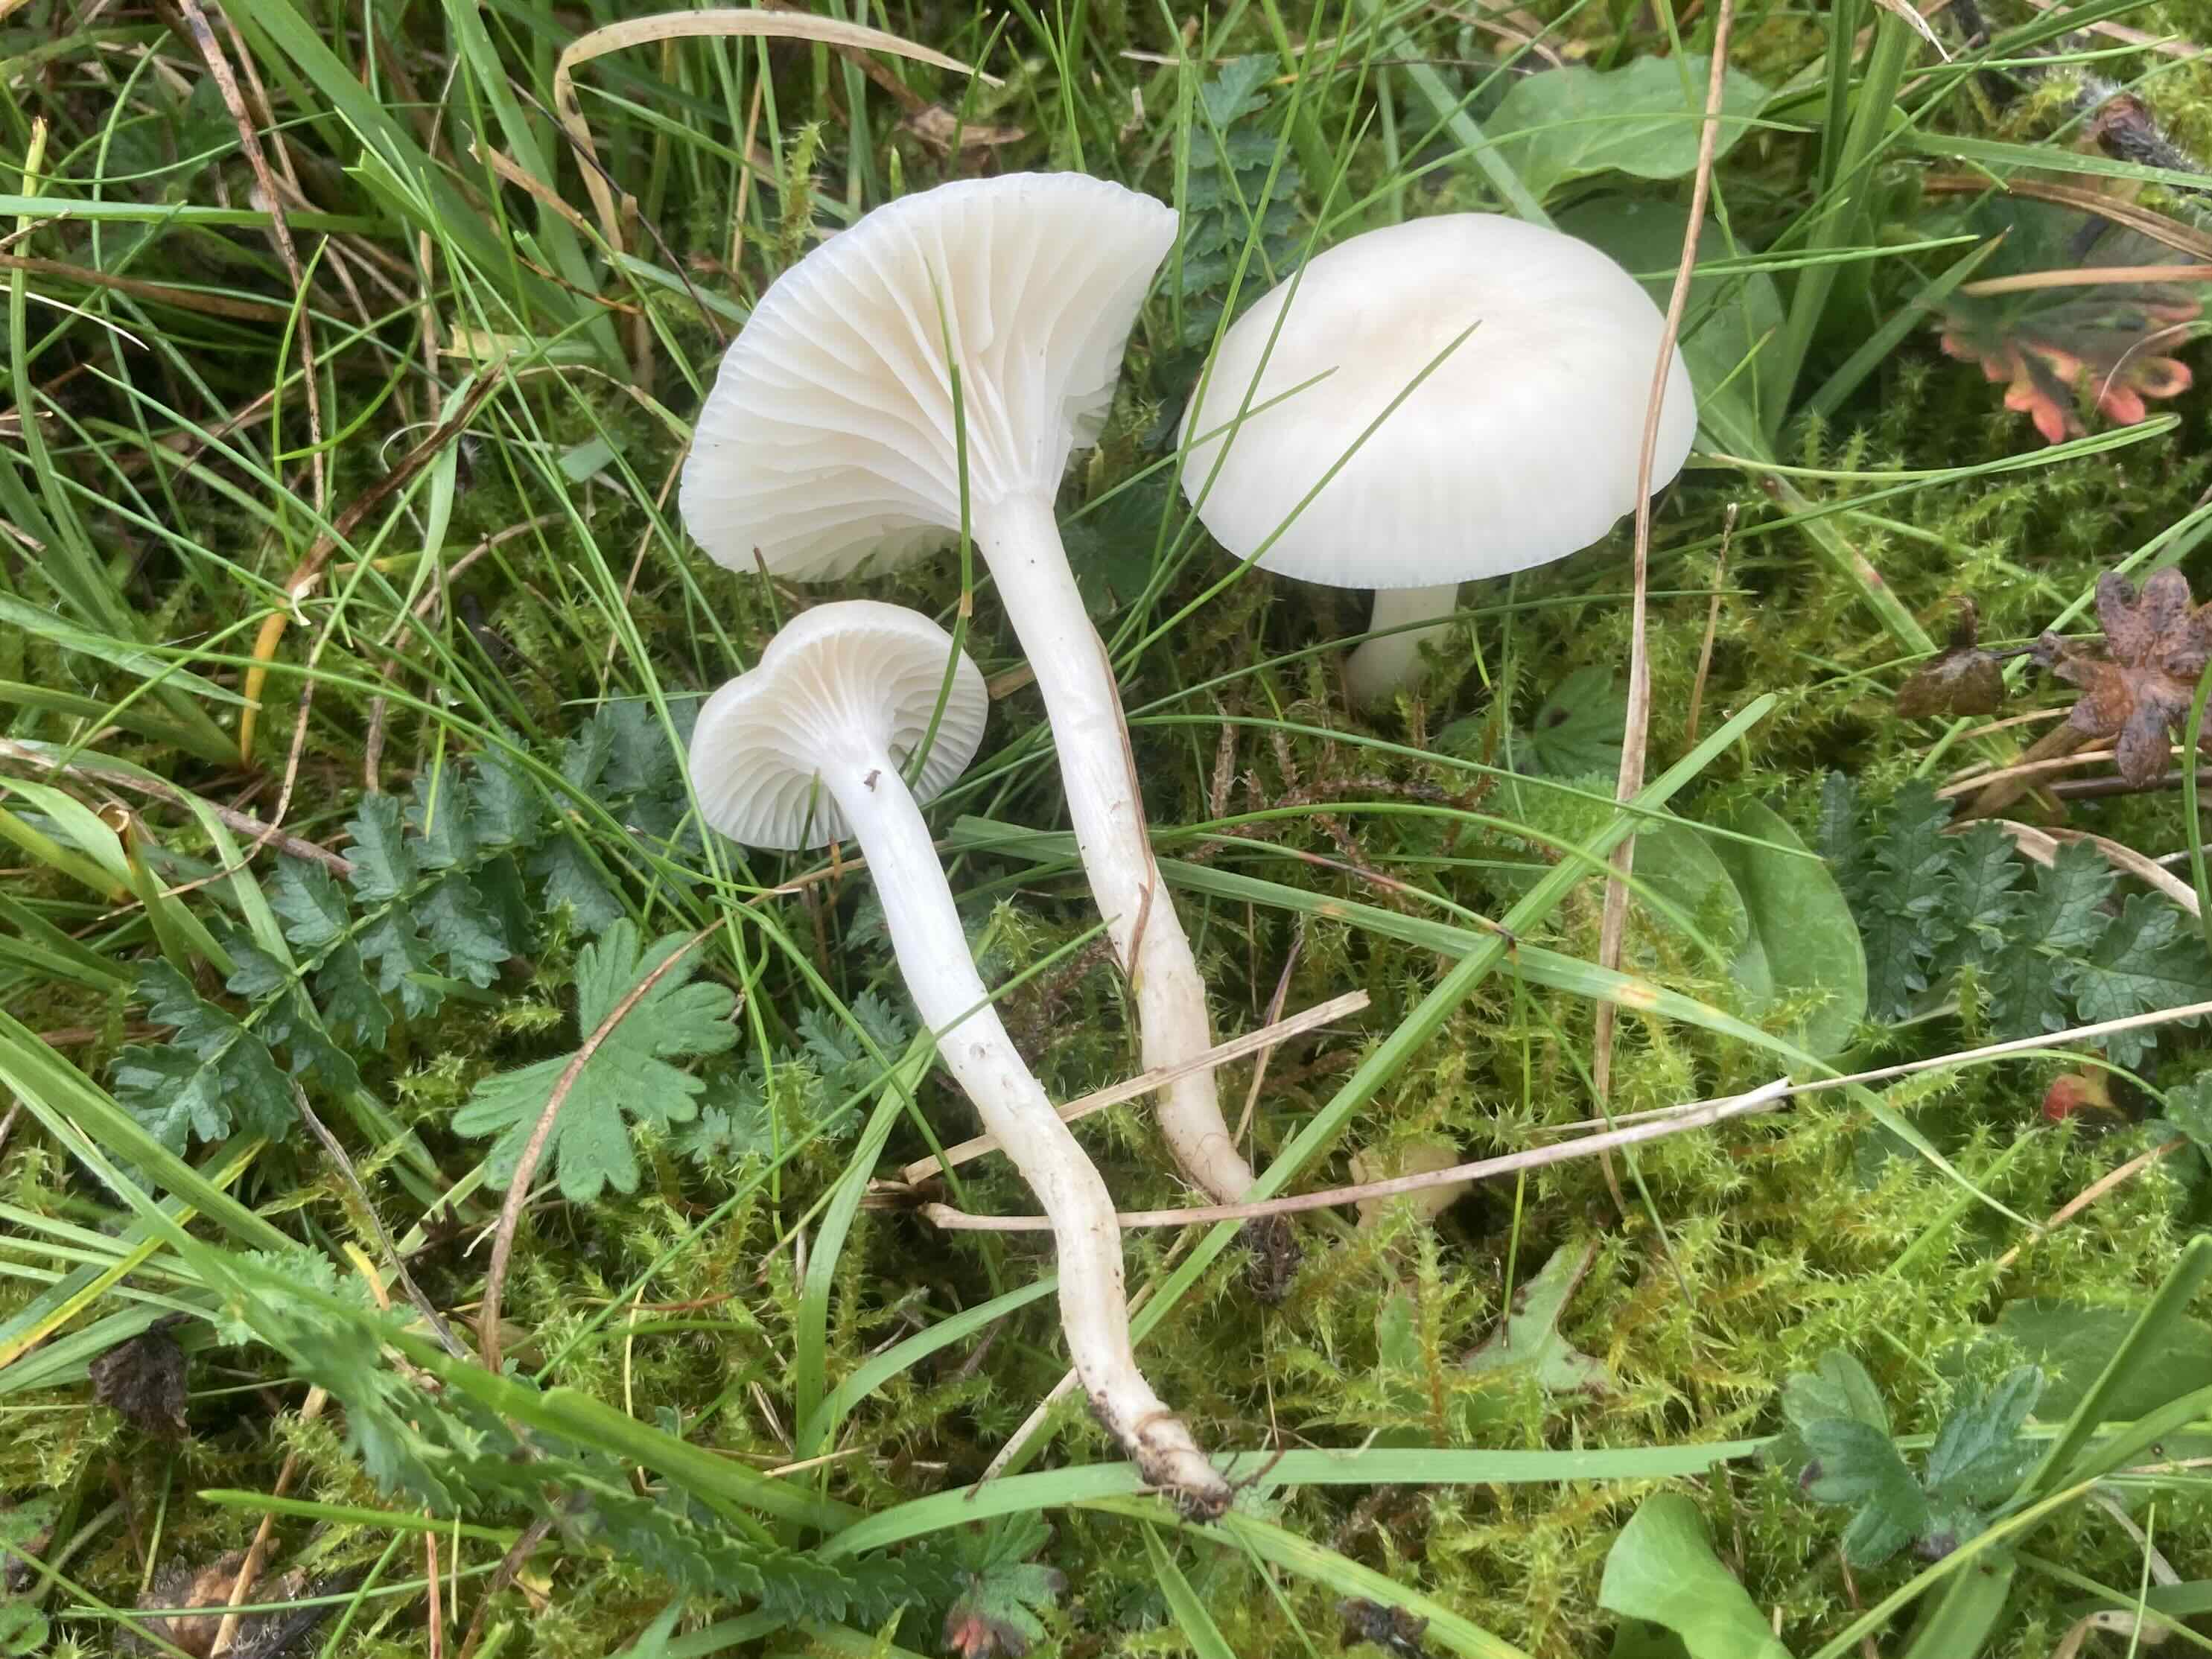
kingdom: Fungi
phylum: Basidiomycota
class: Agaricomycetes
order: Agaricales
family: Hygrophoraceae
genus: Cuphophyllus
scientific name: Cuphophyllus virgineus
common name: snehvid vokshat
